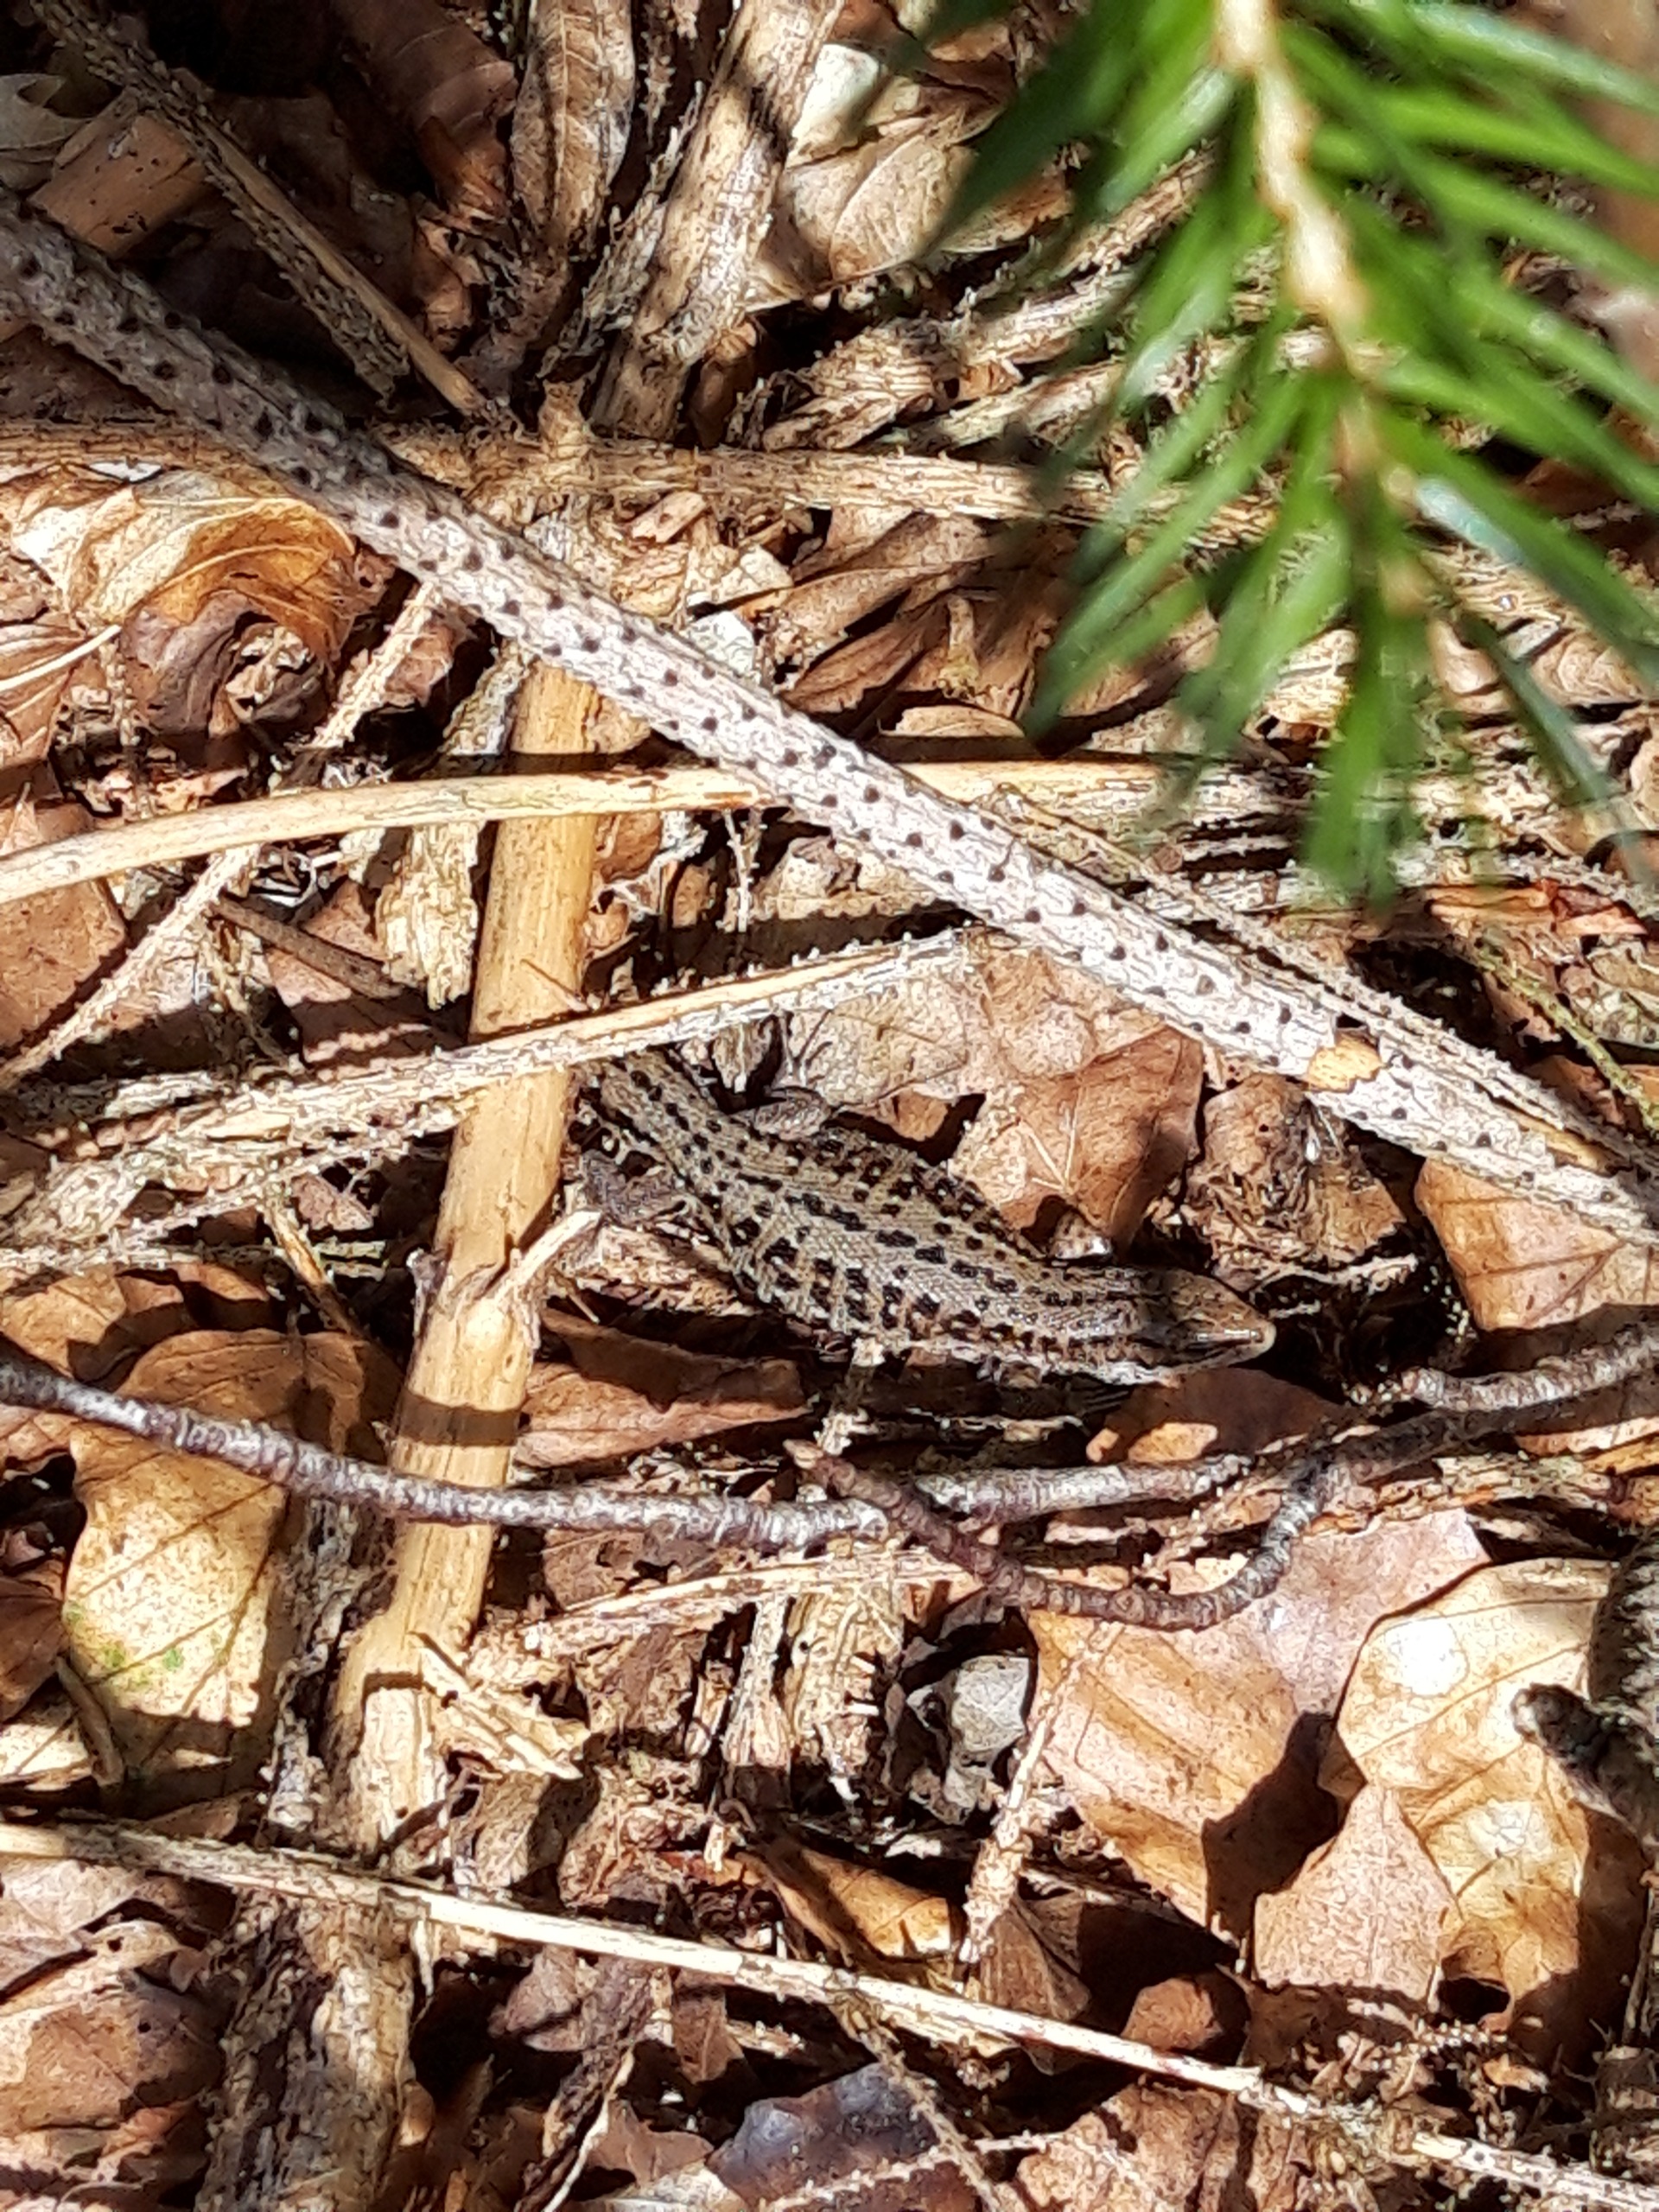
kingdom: Animalia
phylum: Chordata
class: Squamata
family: Lacertidae
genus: Zootoca
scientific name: Zootoca vivipara
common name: Skovfirben
